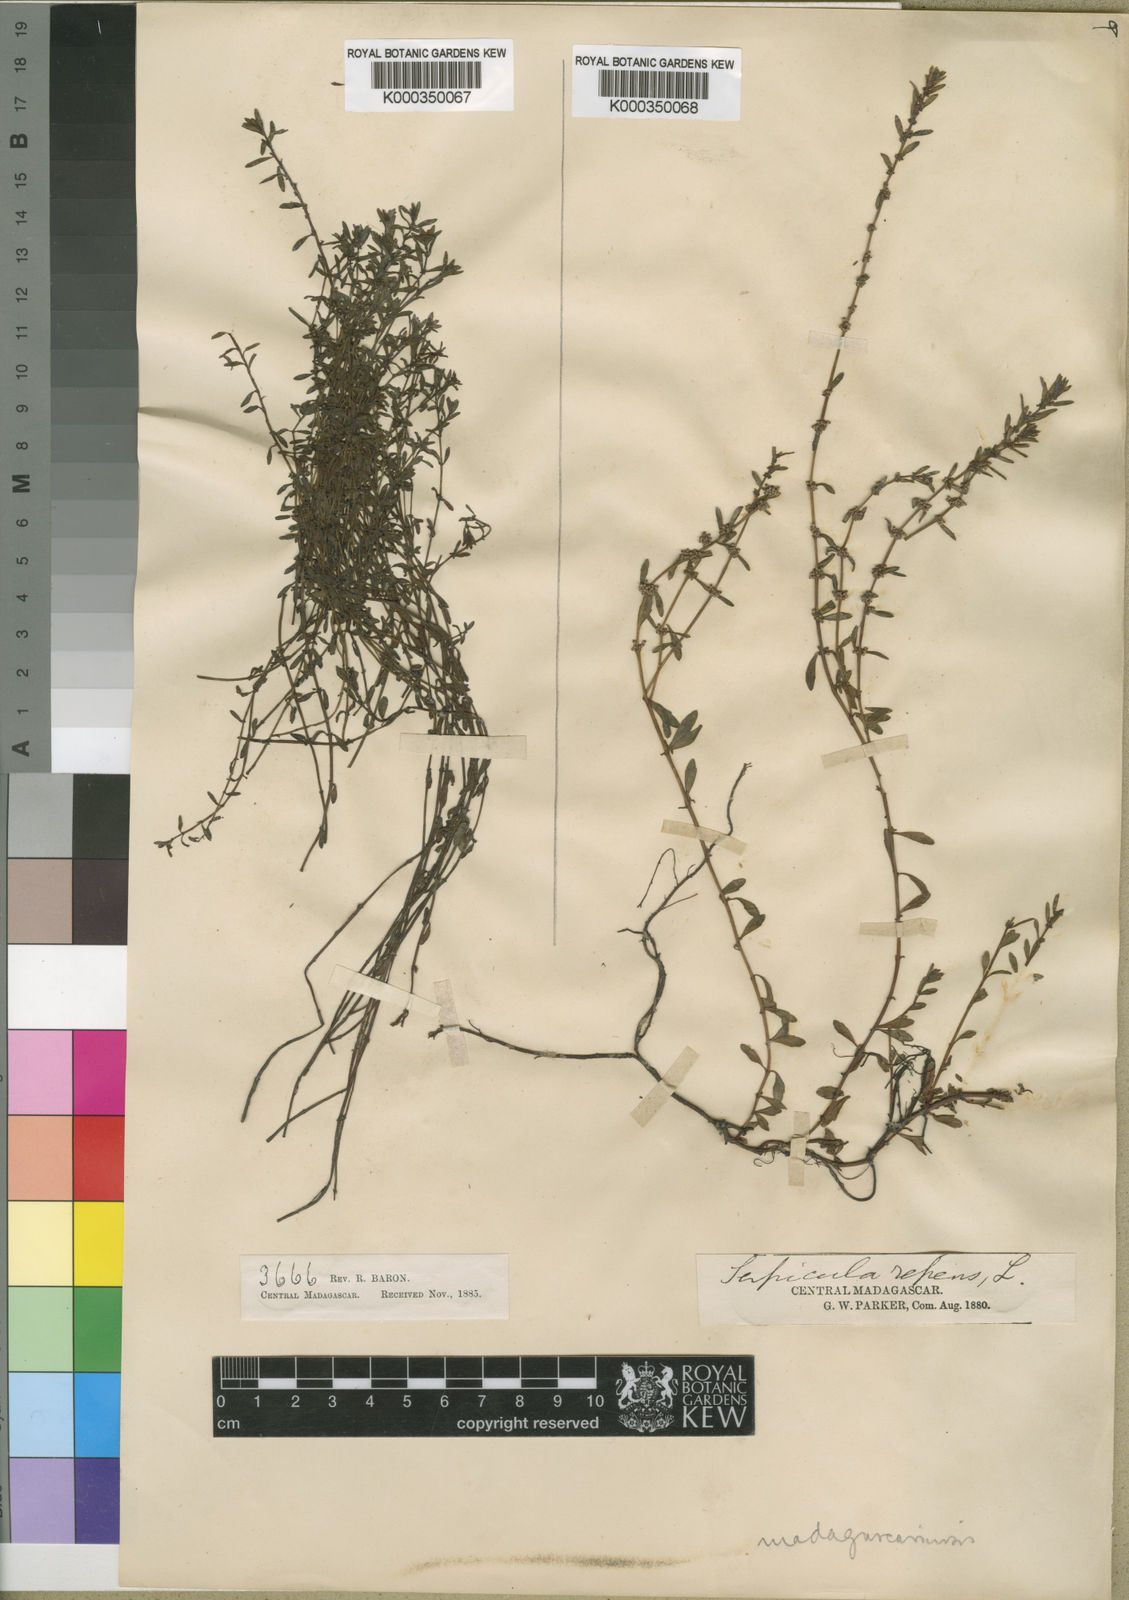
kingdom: Plantae
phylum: Tracheophyta
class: Magnoliopsida
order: Saxifragales
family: Haloragaceae
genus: Laurembergia
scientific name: Laurembergia repens
